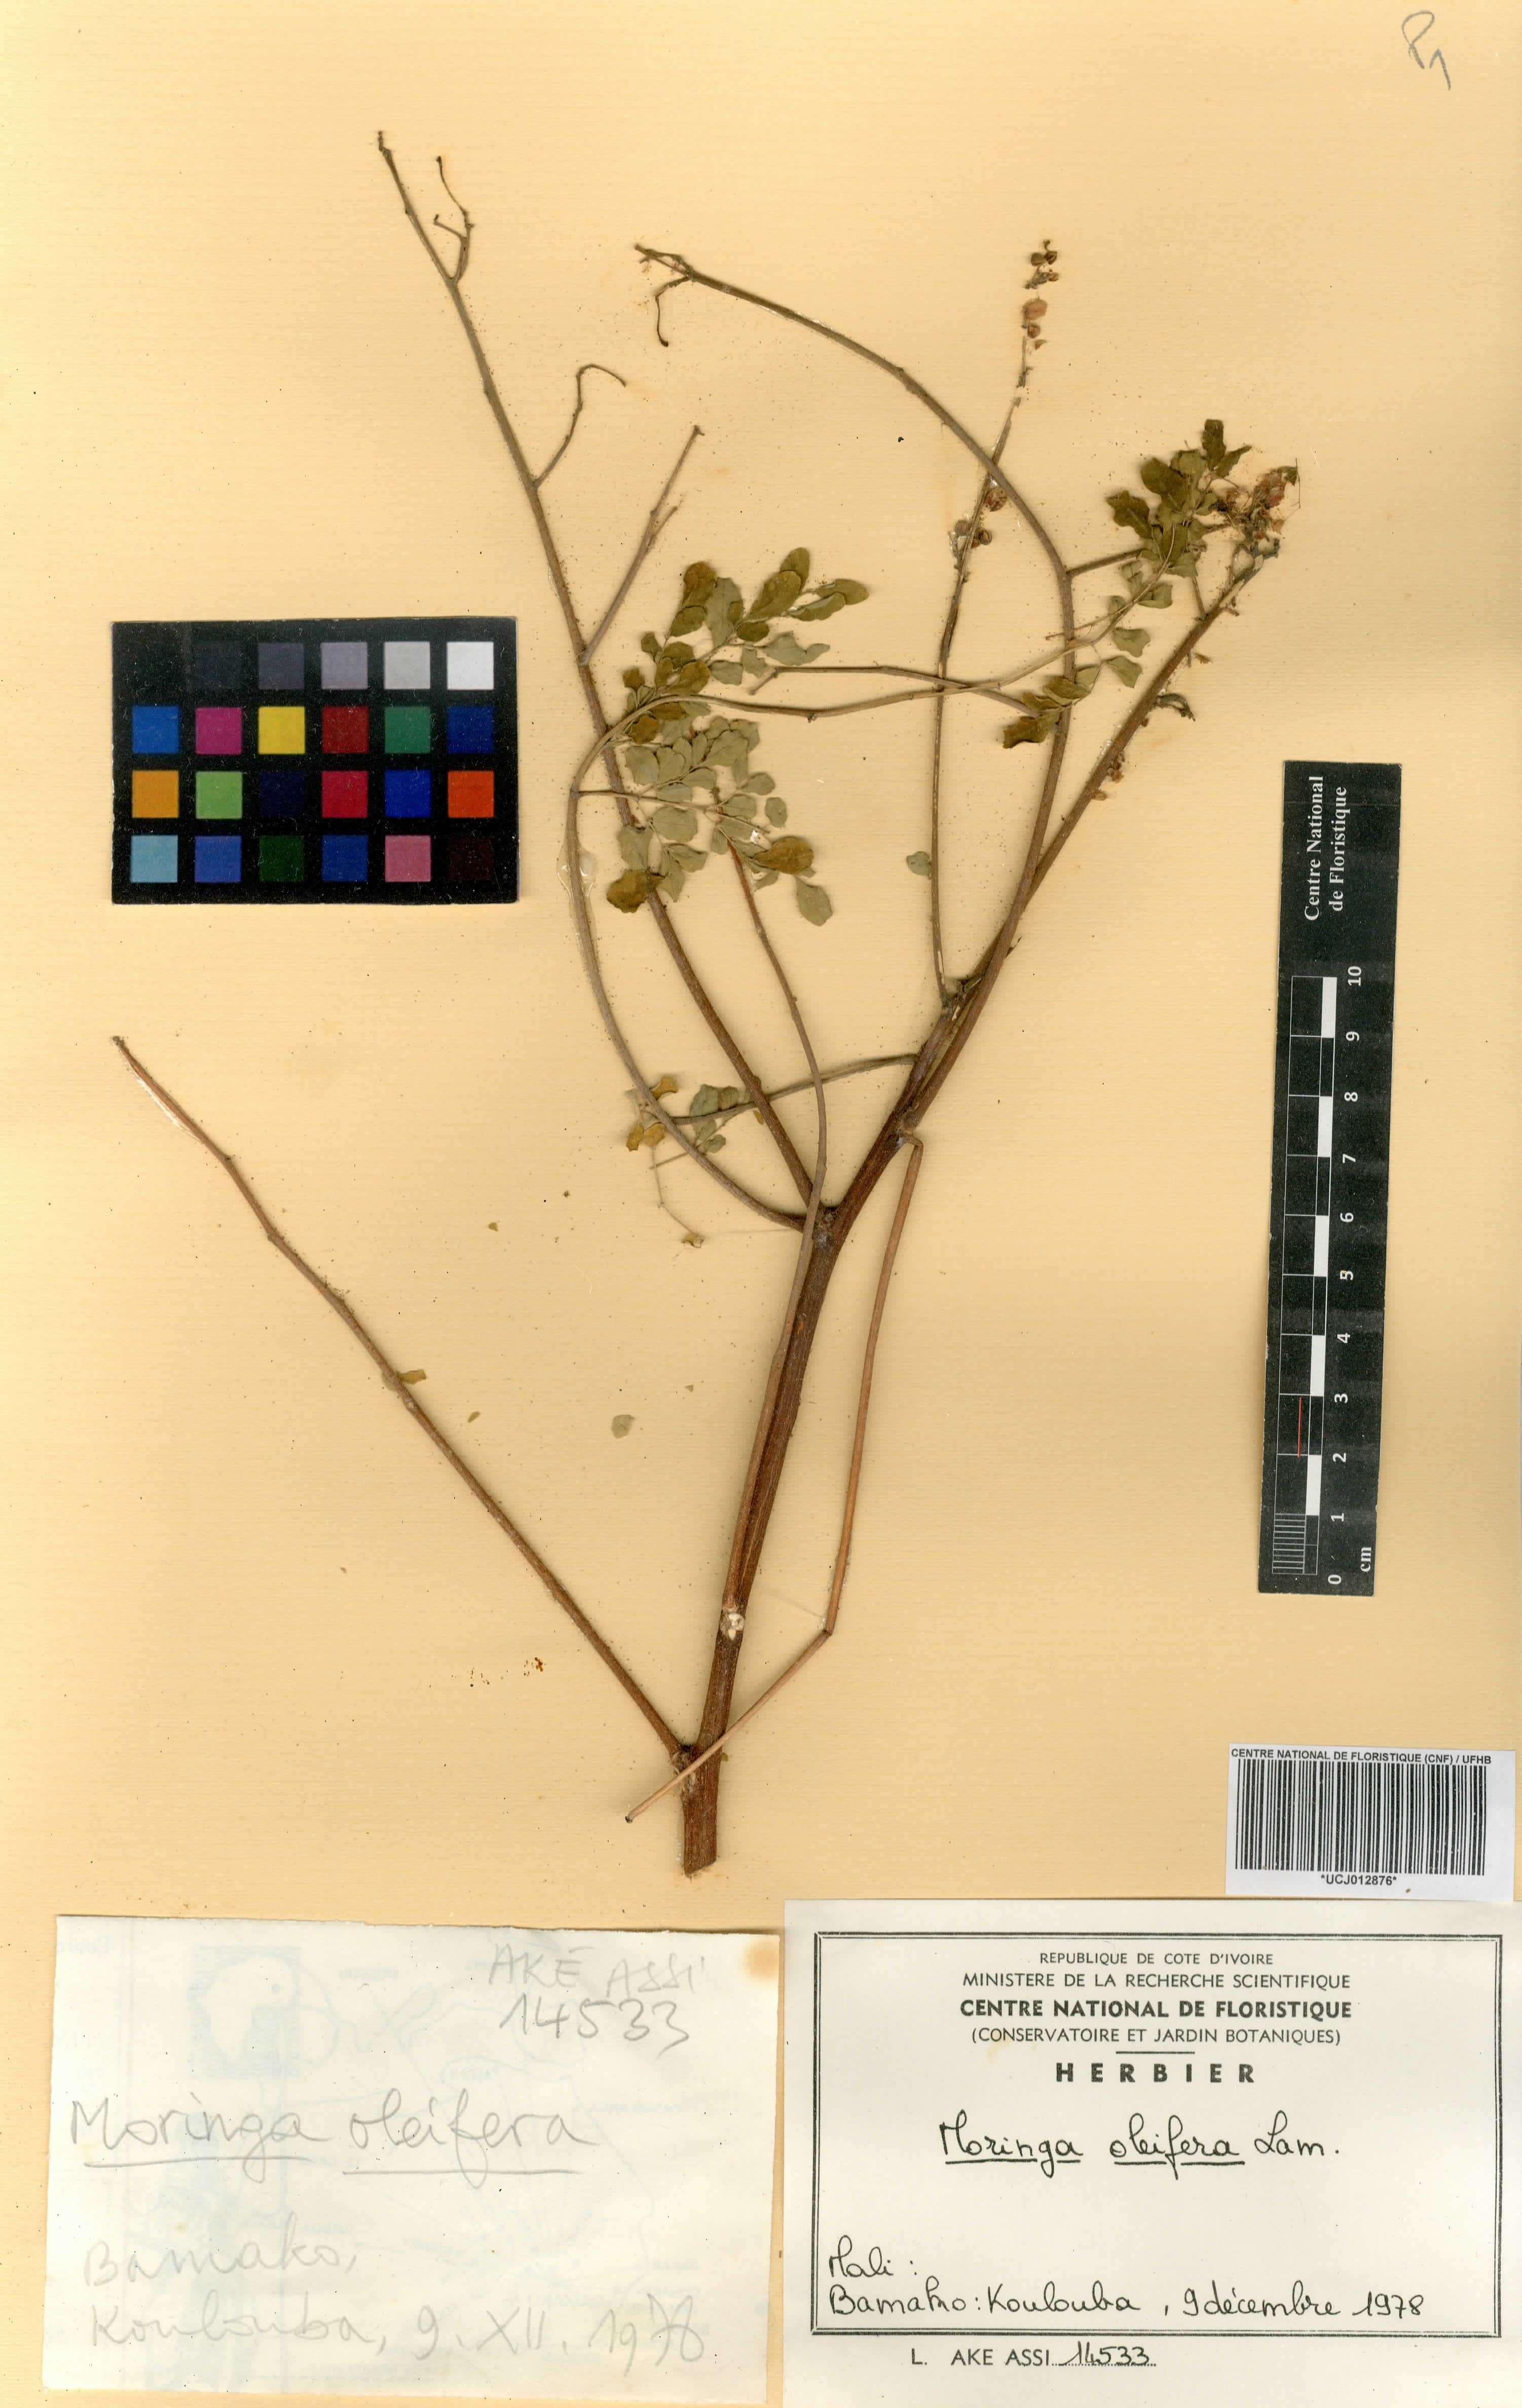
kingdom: Plantae
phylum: Tracheophyta
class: Magnoliopsida
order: Brassicales
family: Moringaceae
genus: Moringa
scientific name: Moringa oleifera
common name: Horseradish-tree
